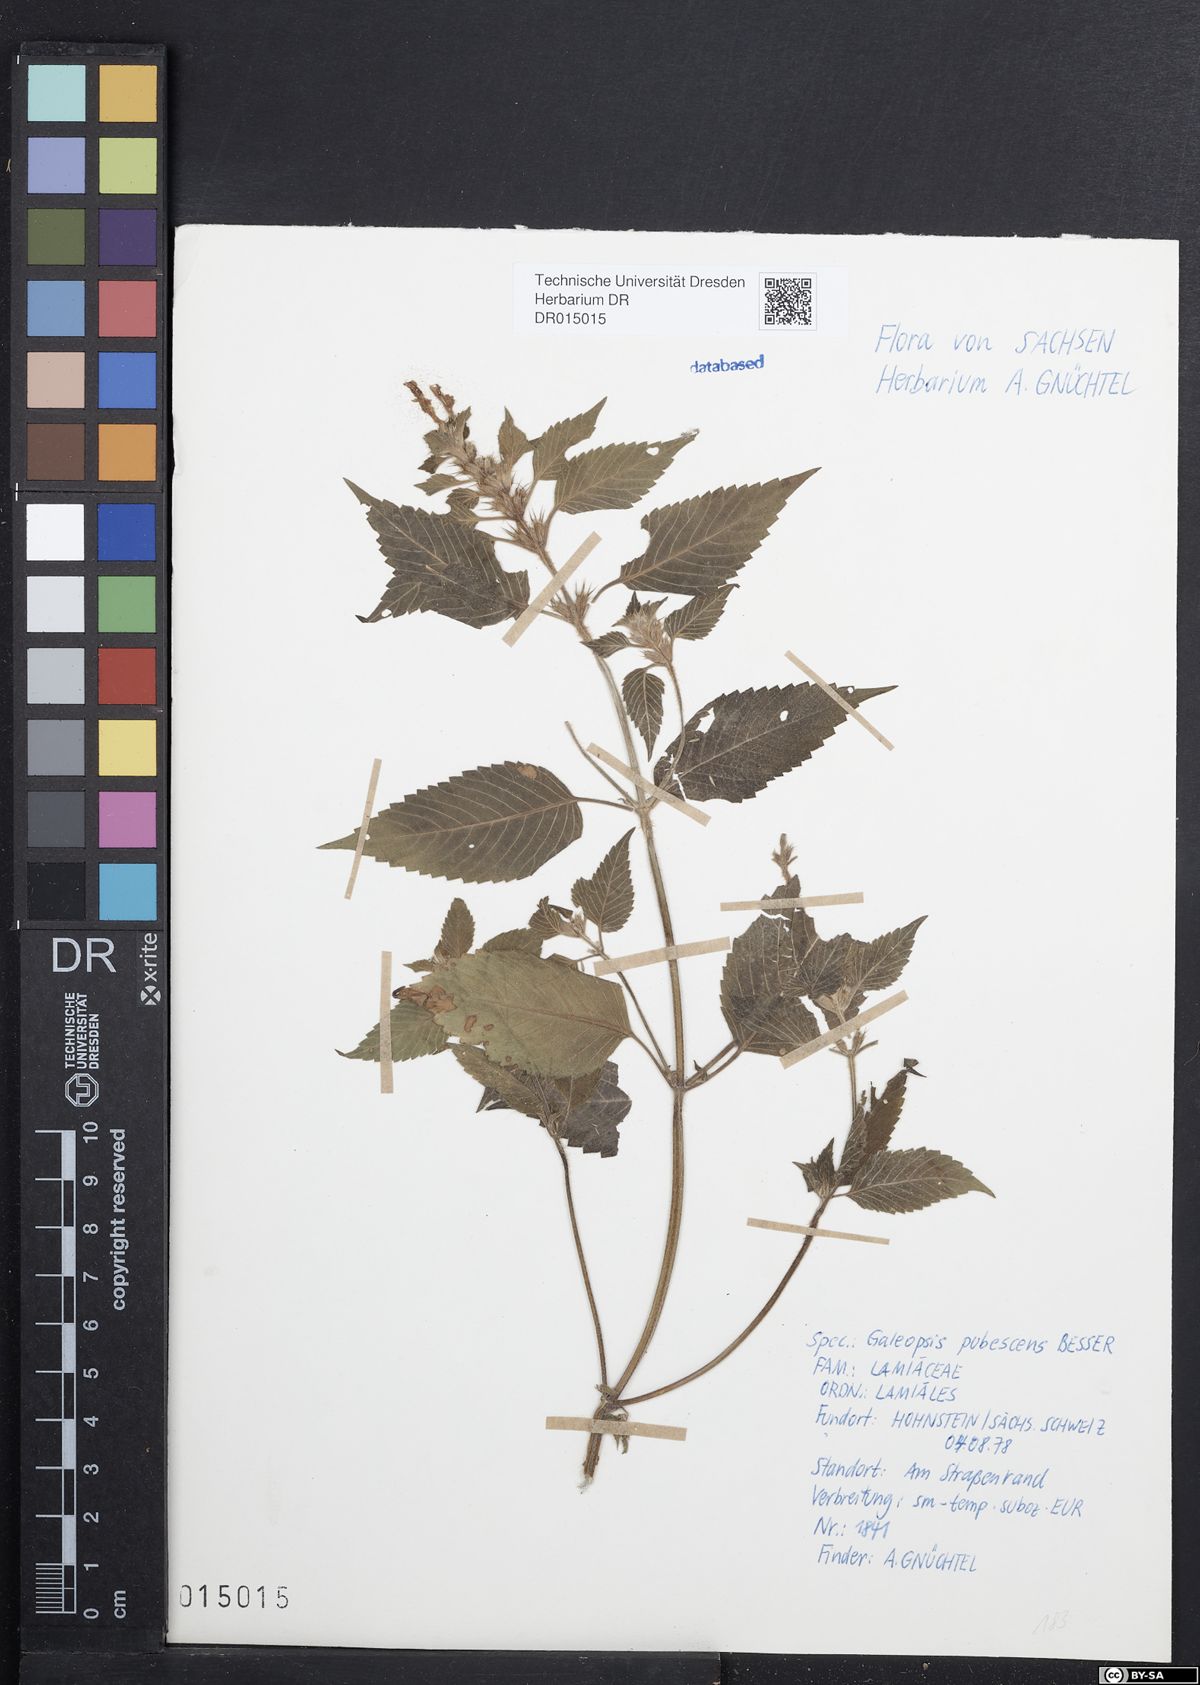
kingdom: Plantae
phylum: Tracheophyta
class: Magnoliopsida
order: Lamiales
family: Lamiaceae
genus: Galeopsis
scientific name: Galeopsis pubescens
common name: Downy hemp-nettle
